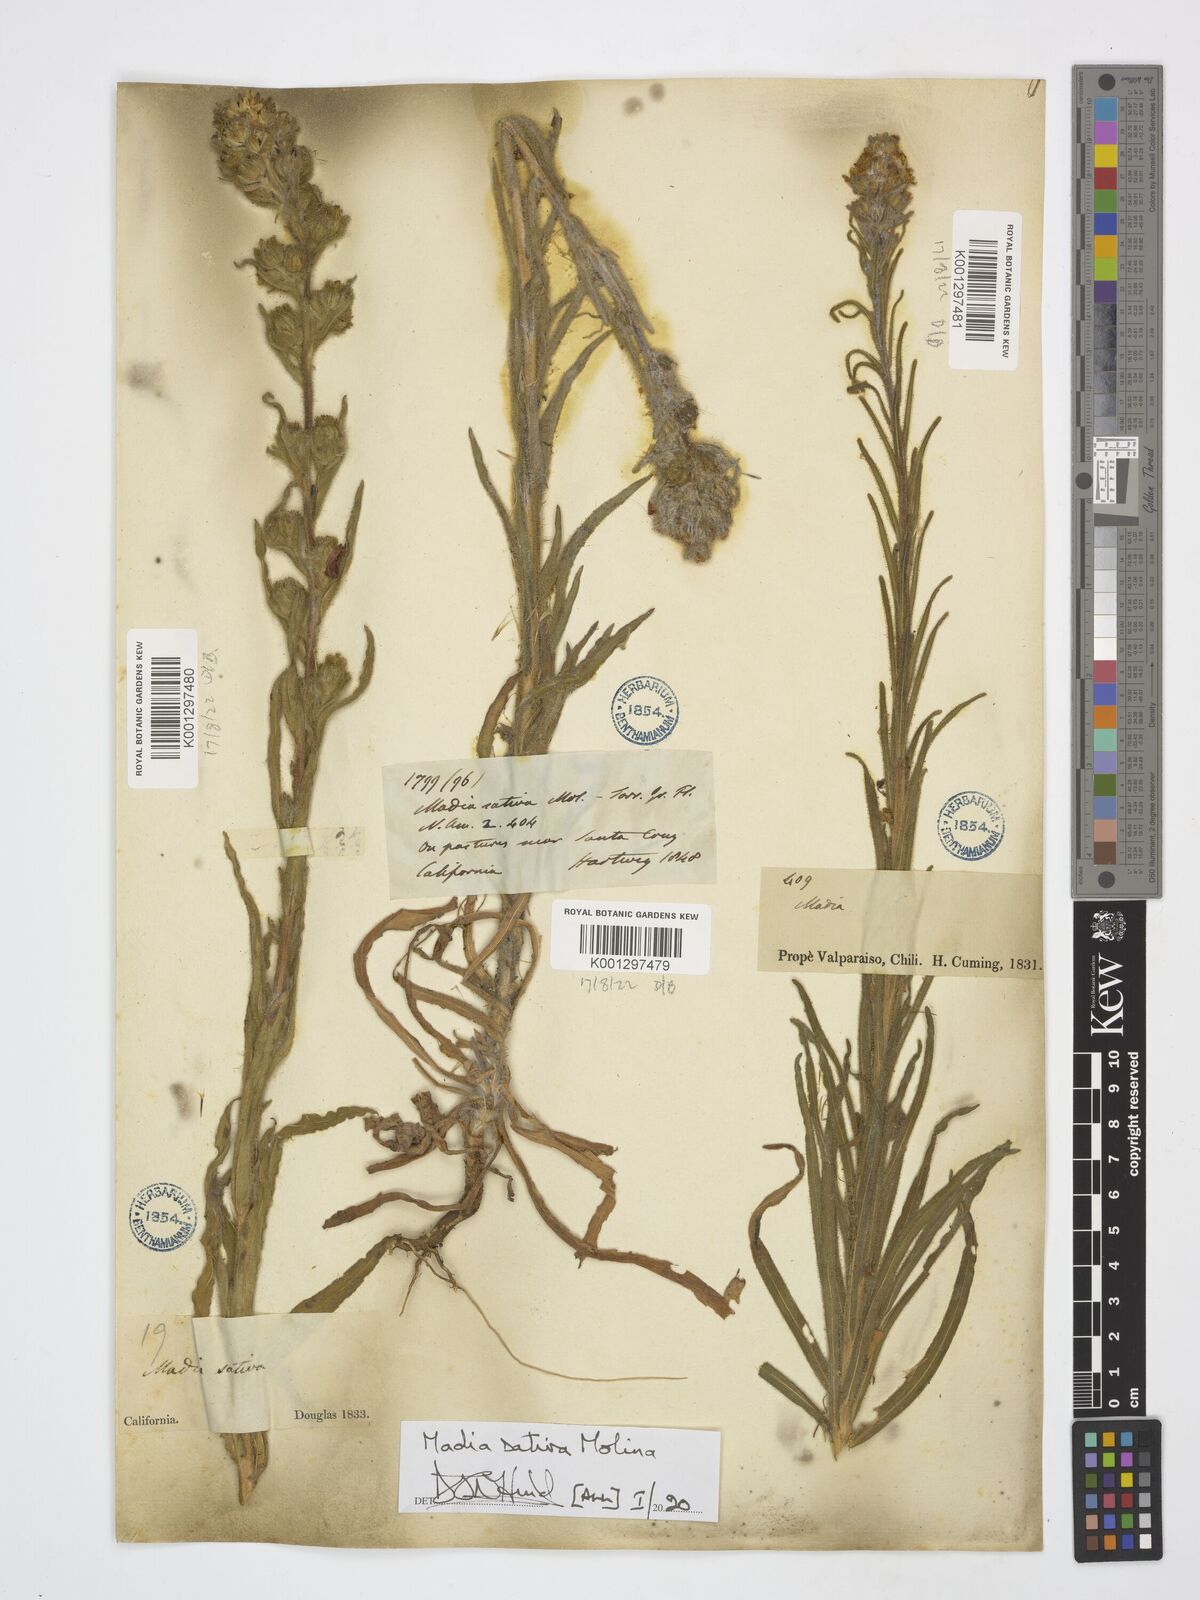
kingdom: Plantae
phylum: Tracheophyta
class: Magnoliopsida
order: Asterales
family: Asteraceae
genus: Madia
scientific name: Madia sativa
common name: Coast tarweed
